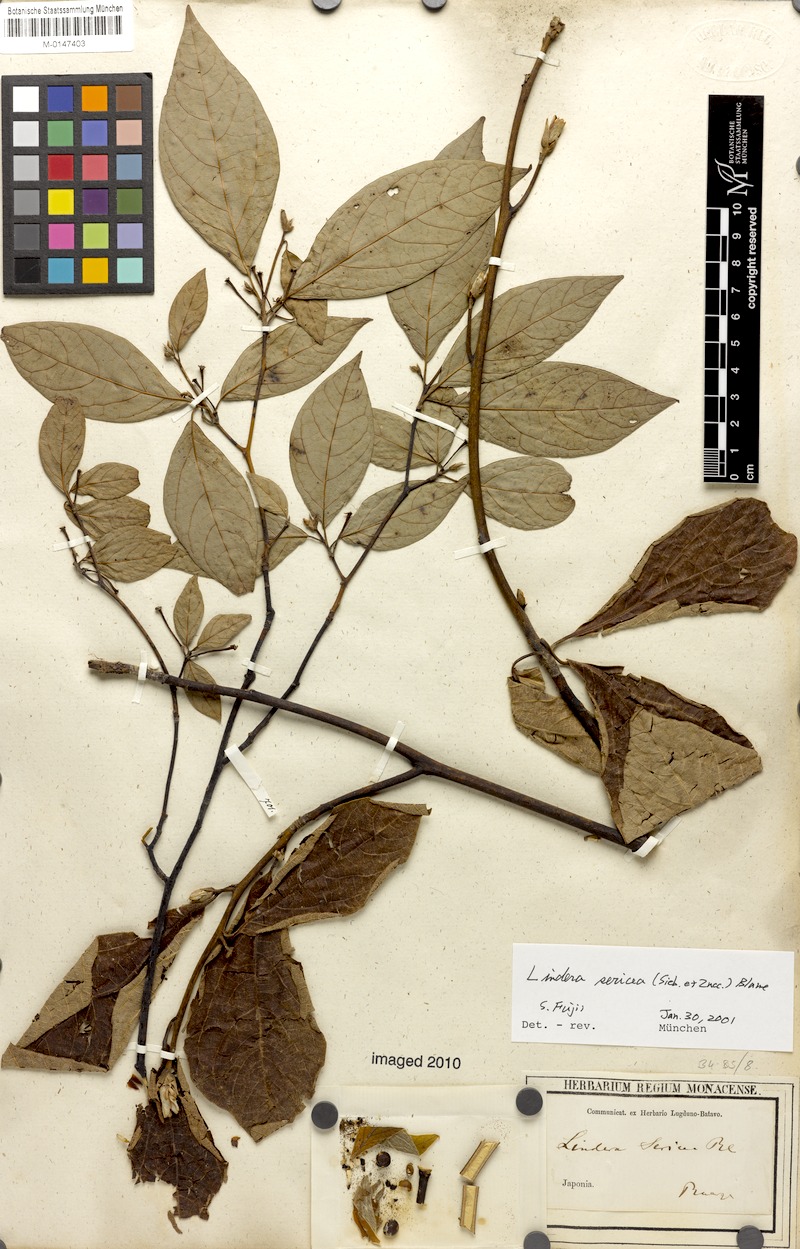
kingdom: Plantae
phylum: Tracheophyta
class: Magnoliopsida
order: Laurales
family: Lauraceae
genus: Lindera
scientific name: Lindera sericea
